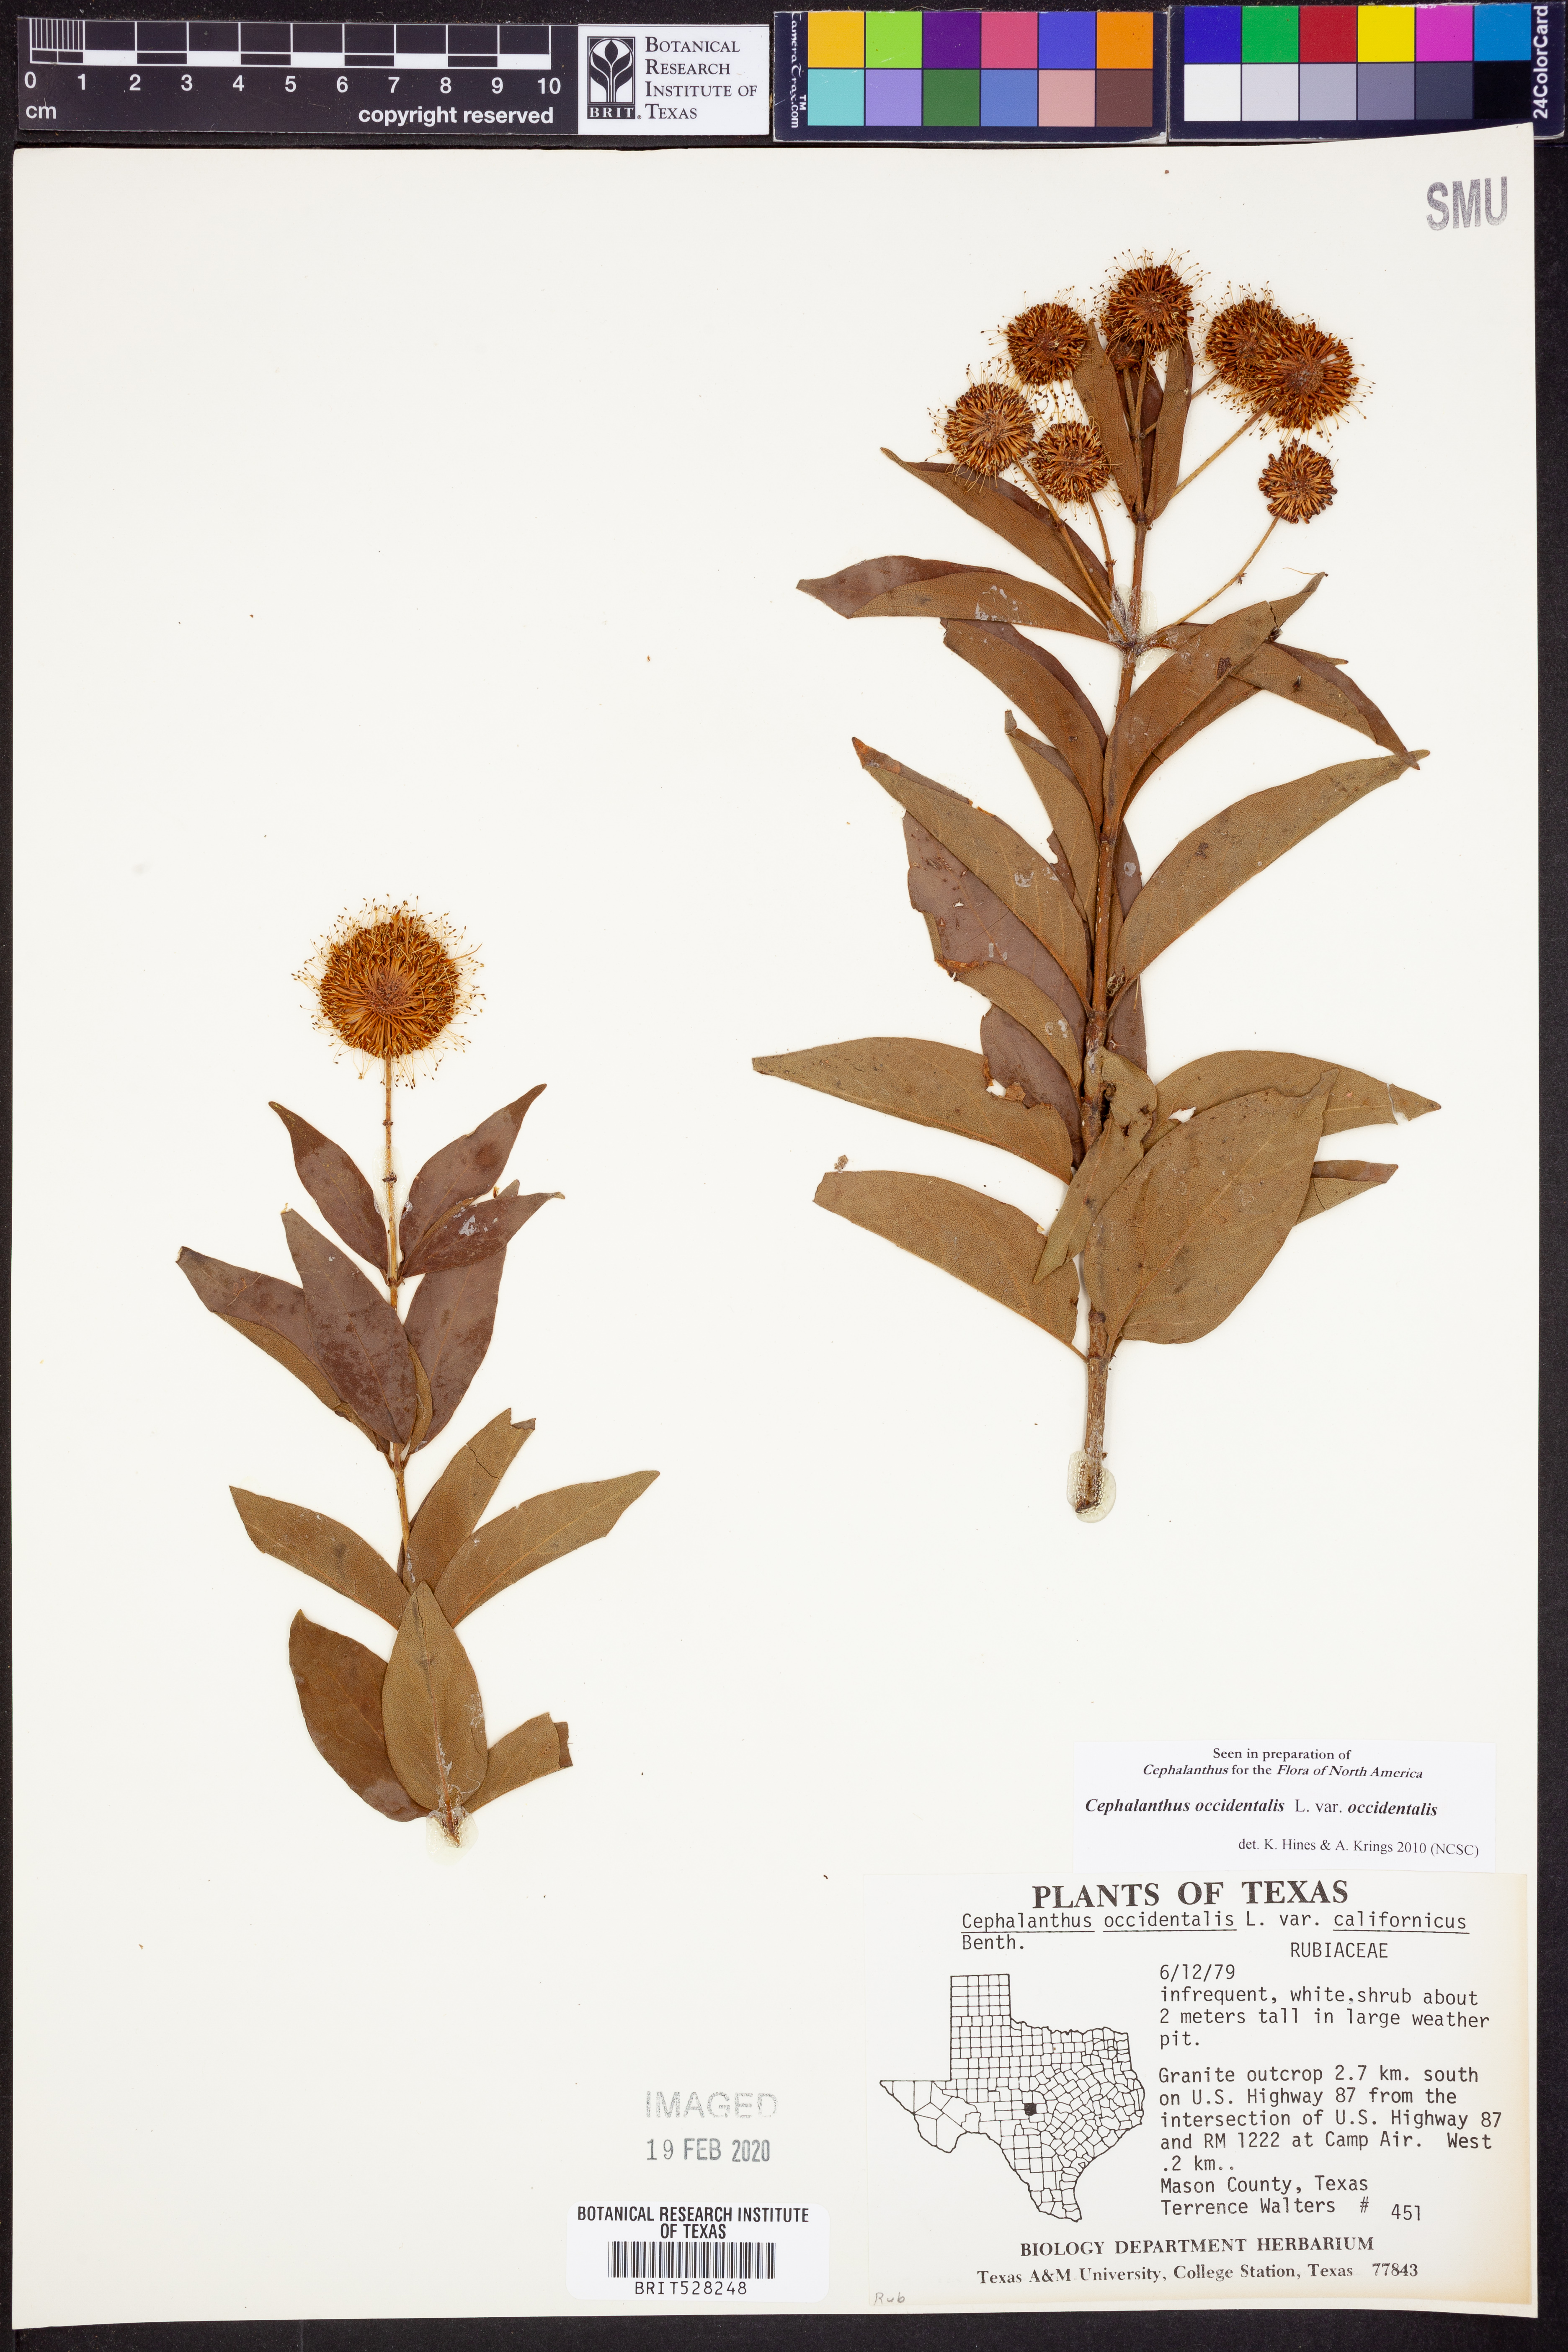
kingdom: Plantae
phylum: Tracheophyta
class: Magnoliopsida
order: Gentianales
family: Rubiaceae
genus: Cephalanthus
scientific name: Cephalanthus occidentalis
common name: Button-willow
